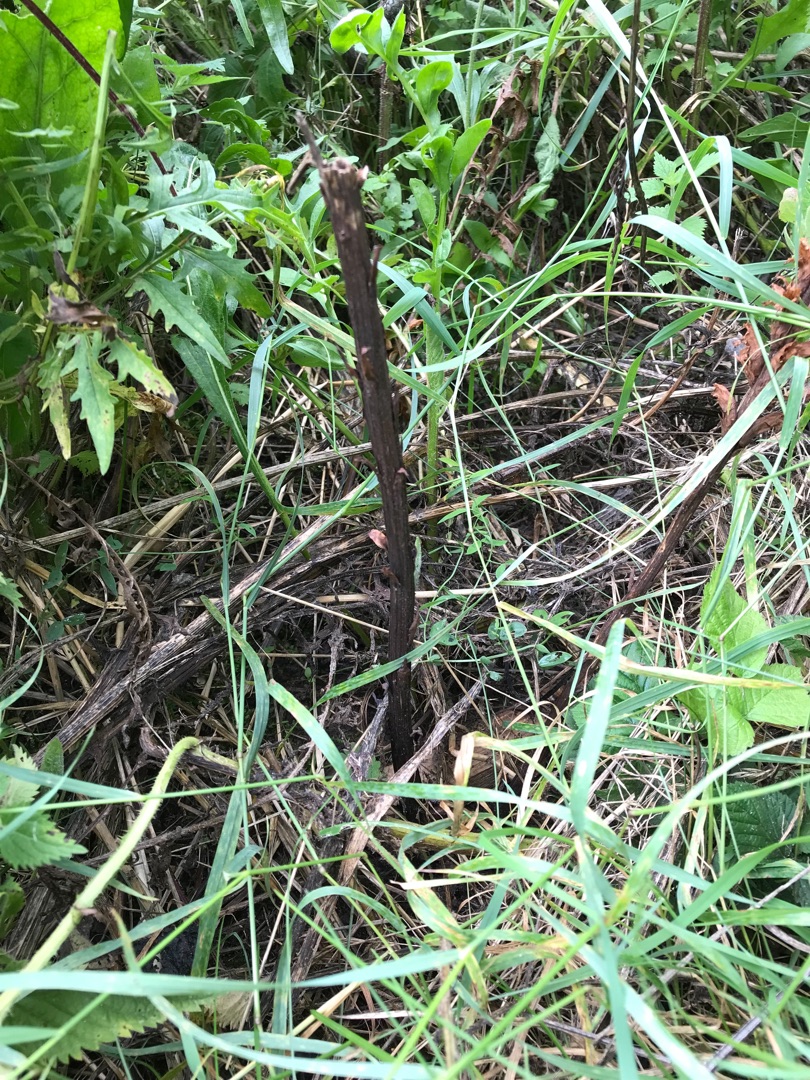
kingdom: Plantae
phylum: Tracheophyta
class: Magnoliopsida
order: Lamiales
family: Orobanchaceae
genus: Orobanche
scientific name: Orobanche elatior
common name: Stor gyvelkvæler
